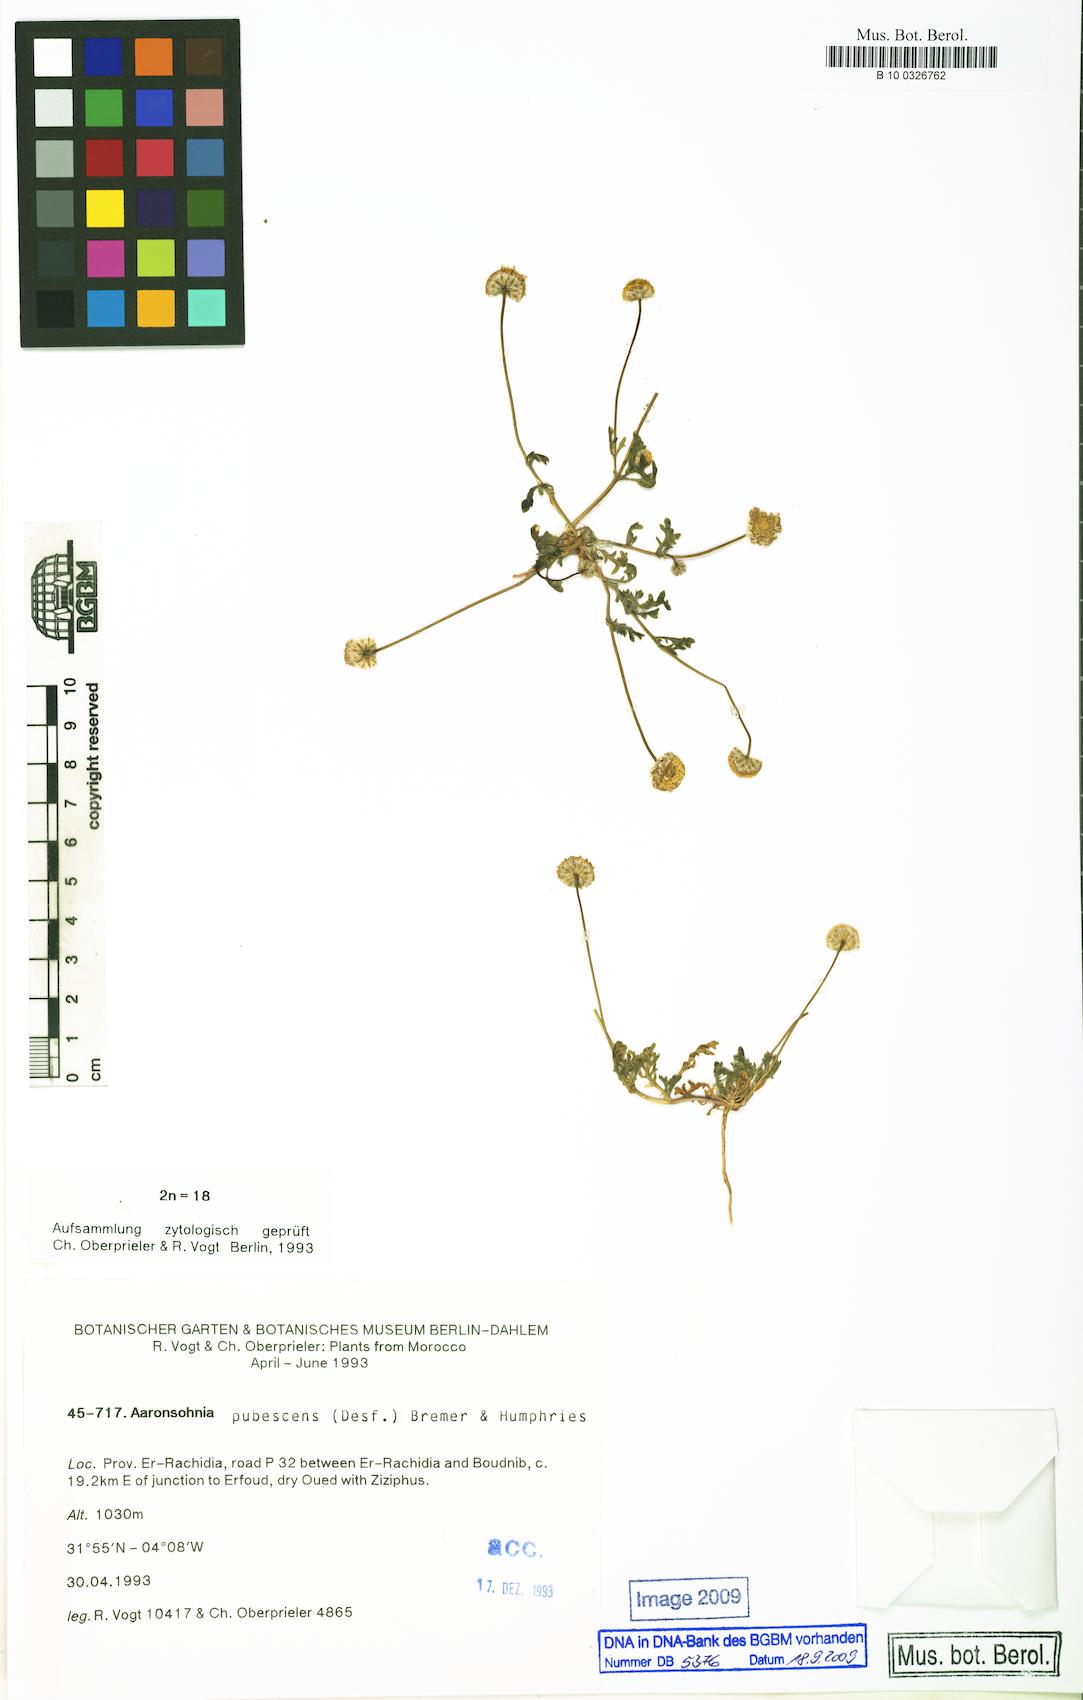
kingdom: Plantae
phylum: Tracheophyta
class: Magnoliopsida
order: Asterales
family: Asteraceae
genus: Otoglyphis
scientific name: Otoglyphis pubescens
